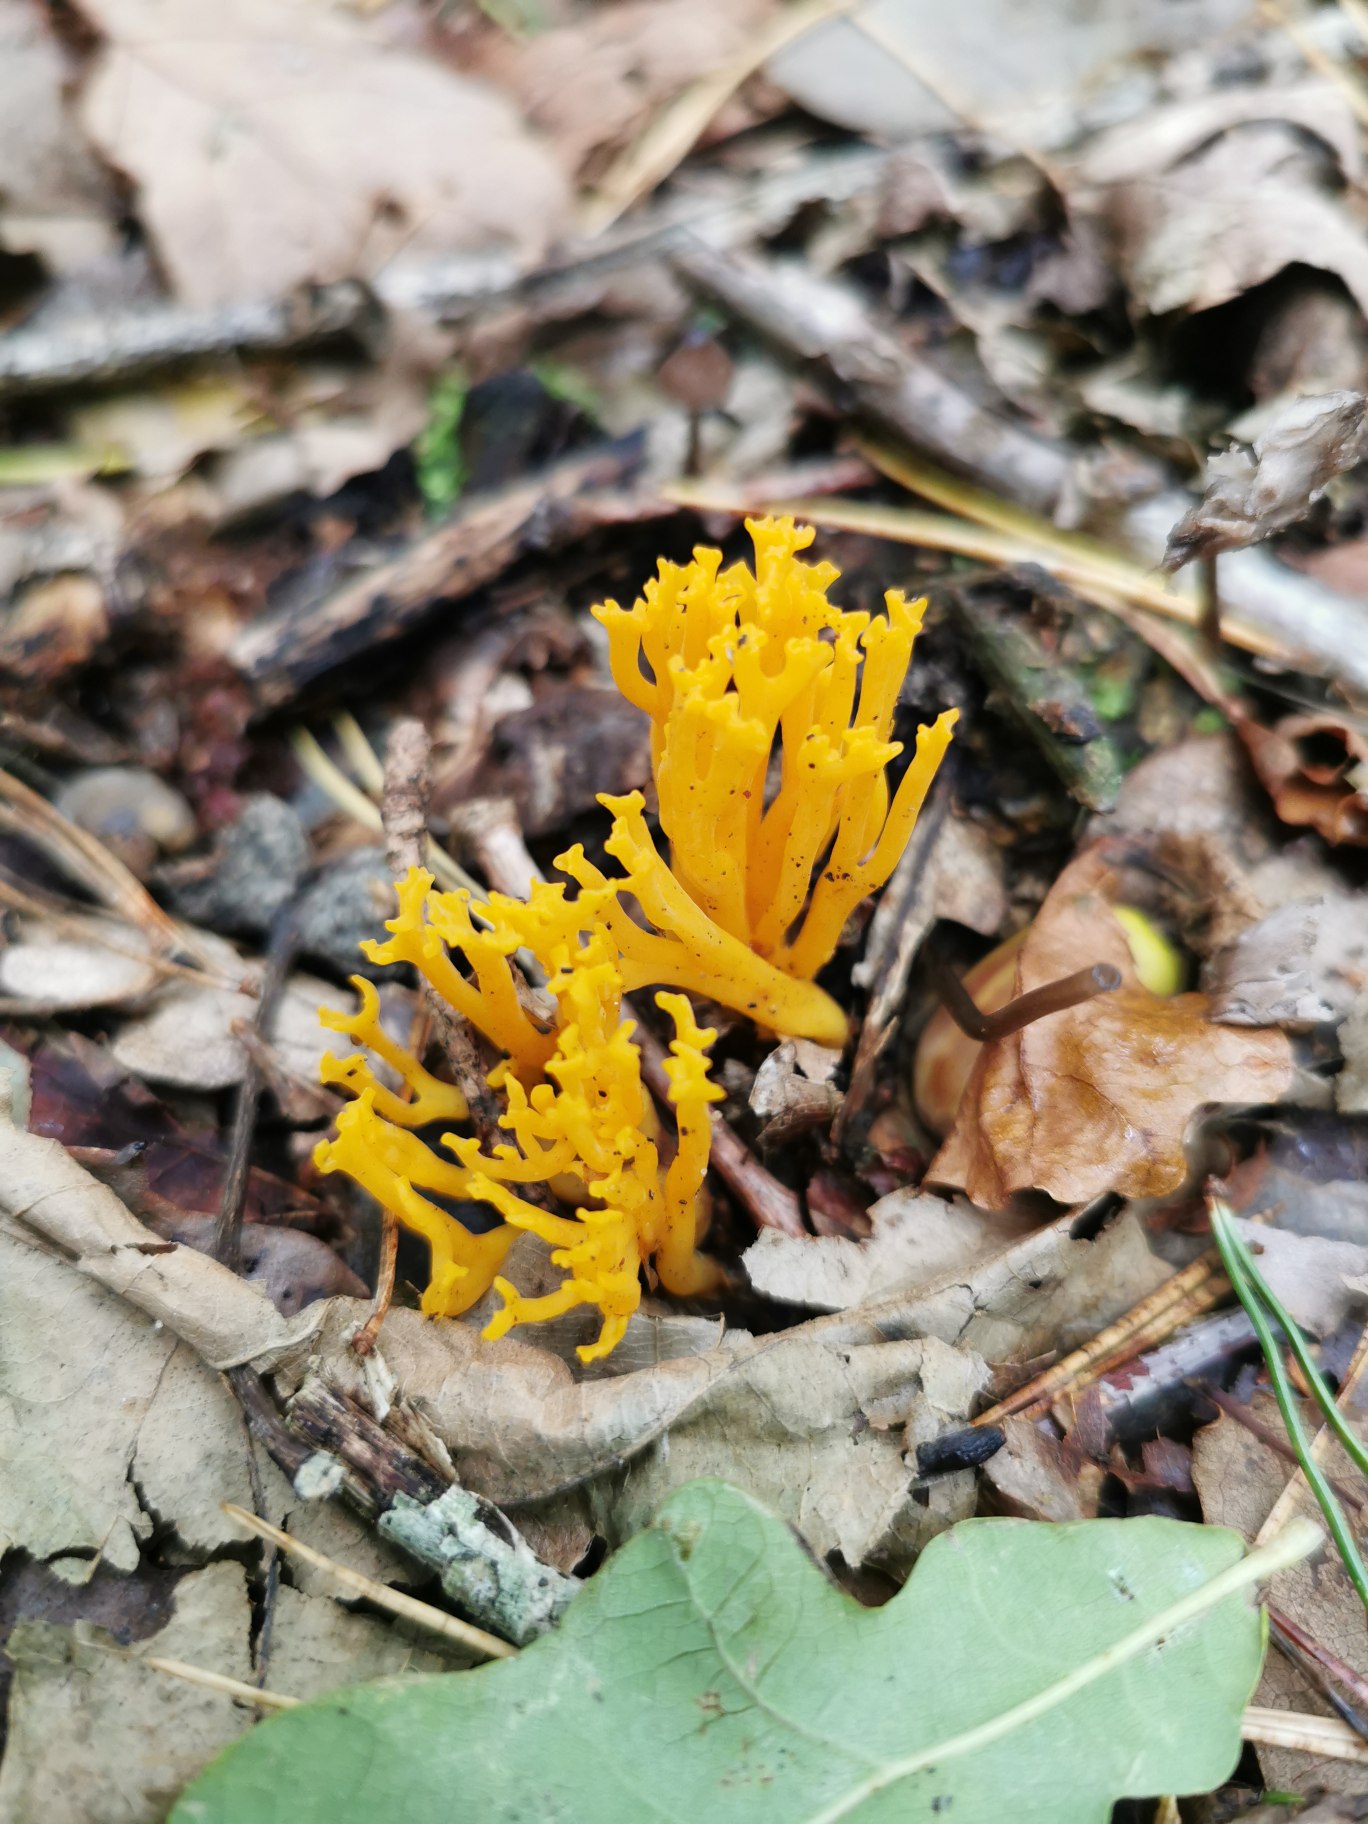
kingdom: Fungi
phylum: Basidiomycota
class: Dacrymycetes
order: Dacrymycetales
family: Dacrymycetaceae
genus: Calocera
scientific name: Calocera viscosa
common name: Almindelig guldgaffel
